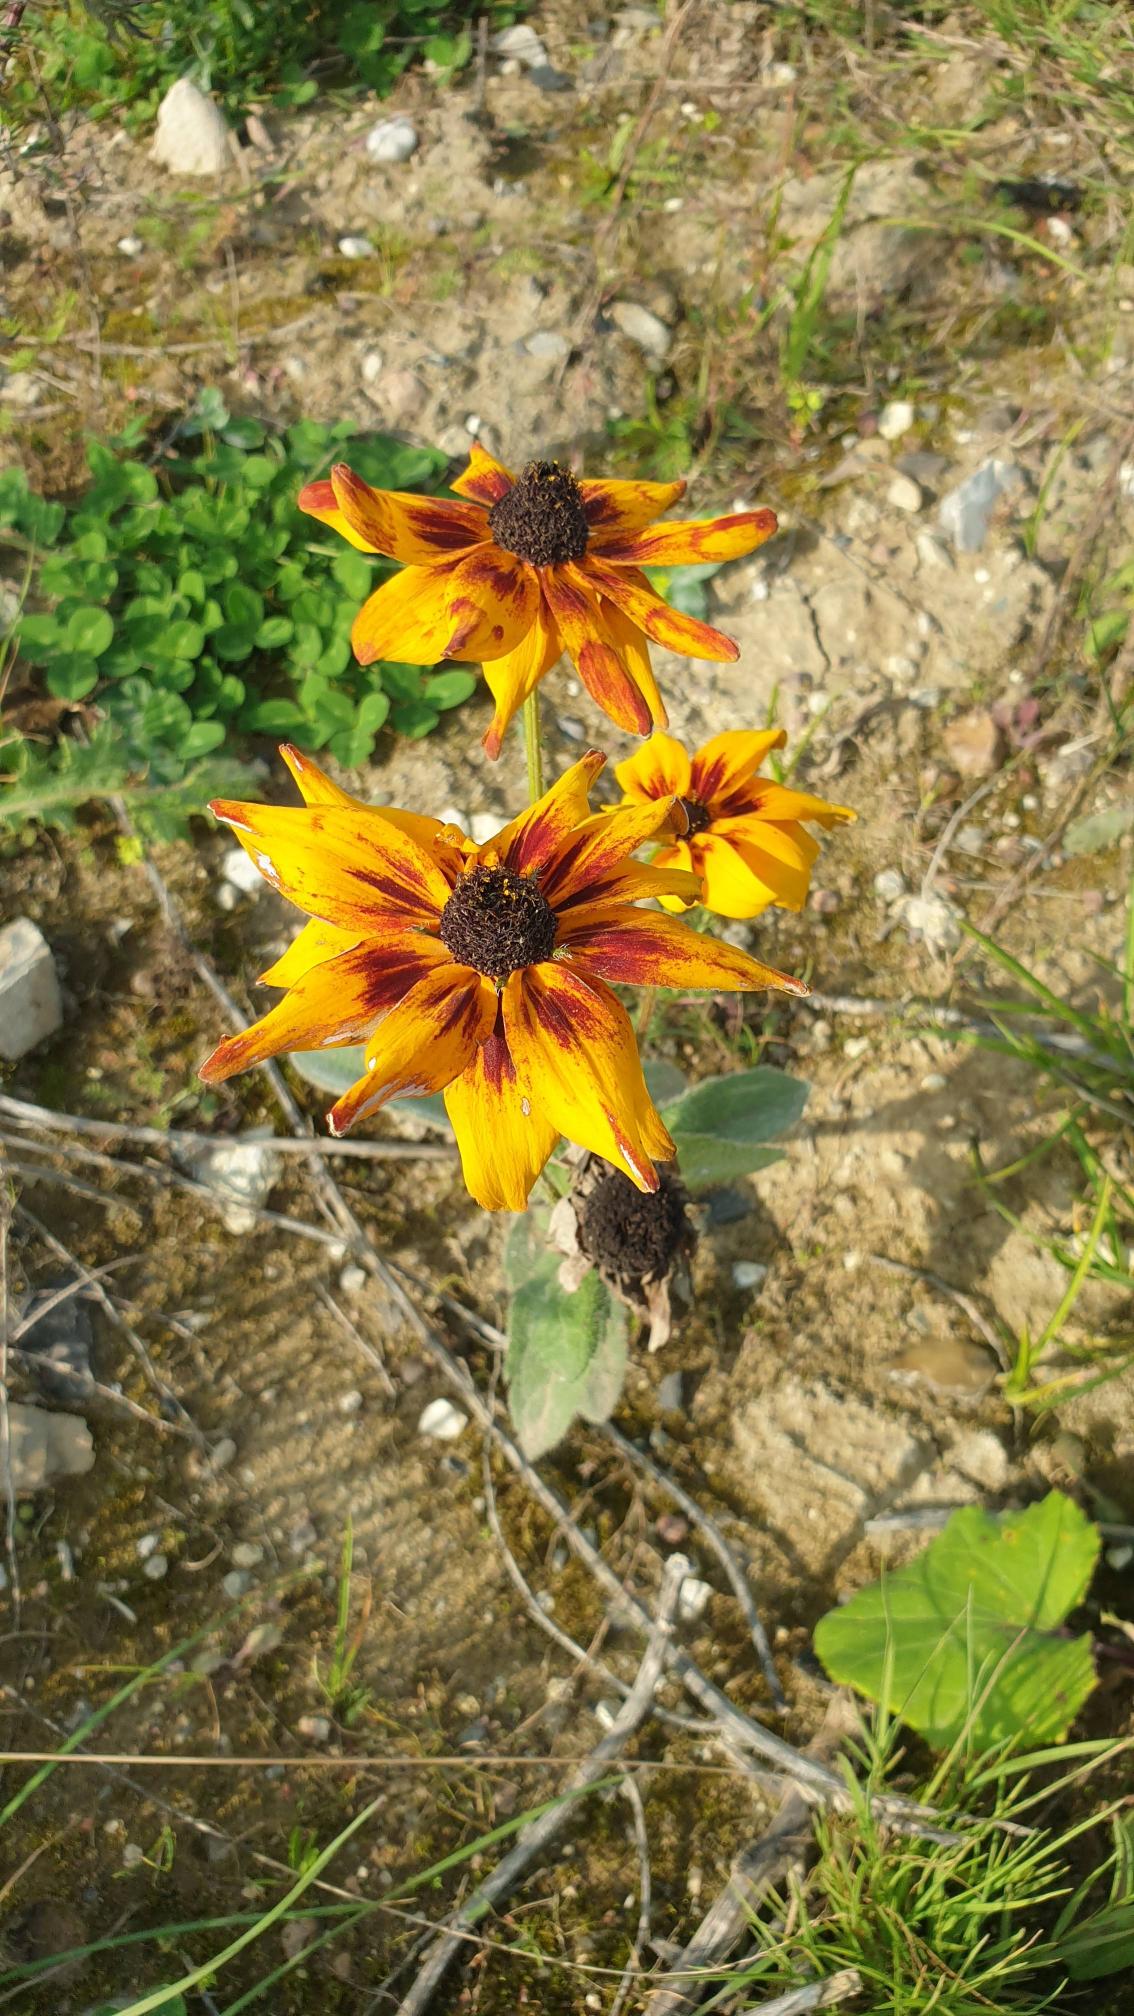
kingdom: Plantae
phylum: Tracheophyta
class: Magnoliopsida
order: Asterales
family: Asteraceae
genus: Rudbeckia
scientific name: Rudbeckia hirta
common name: Håret solhat
